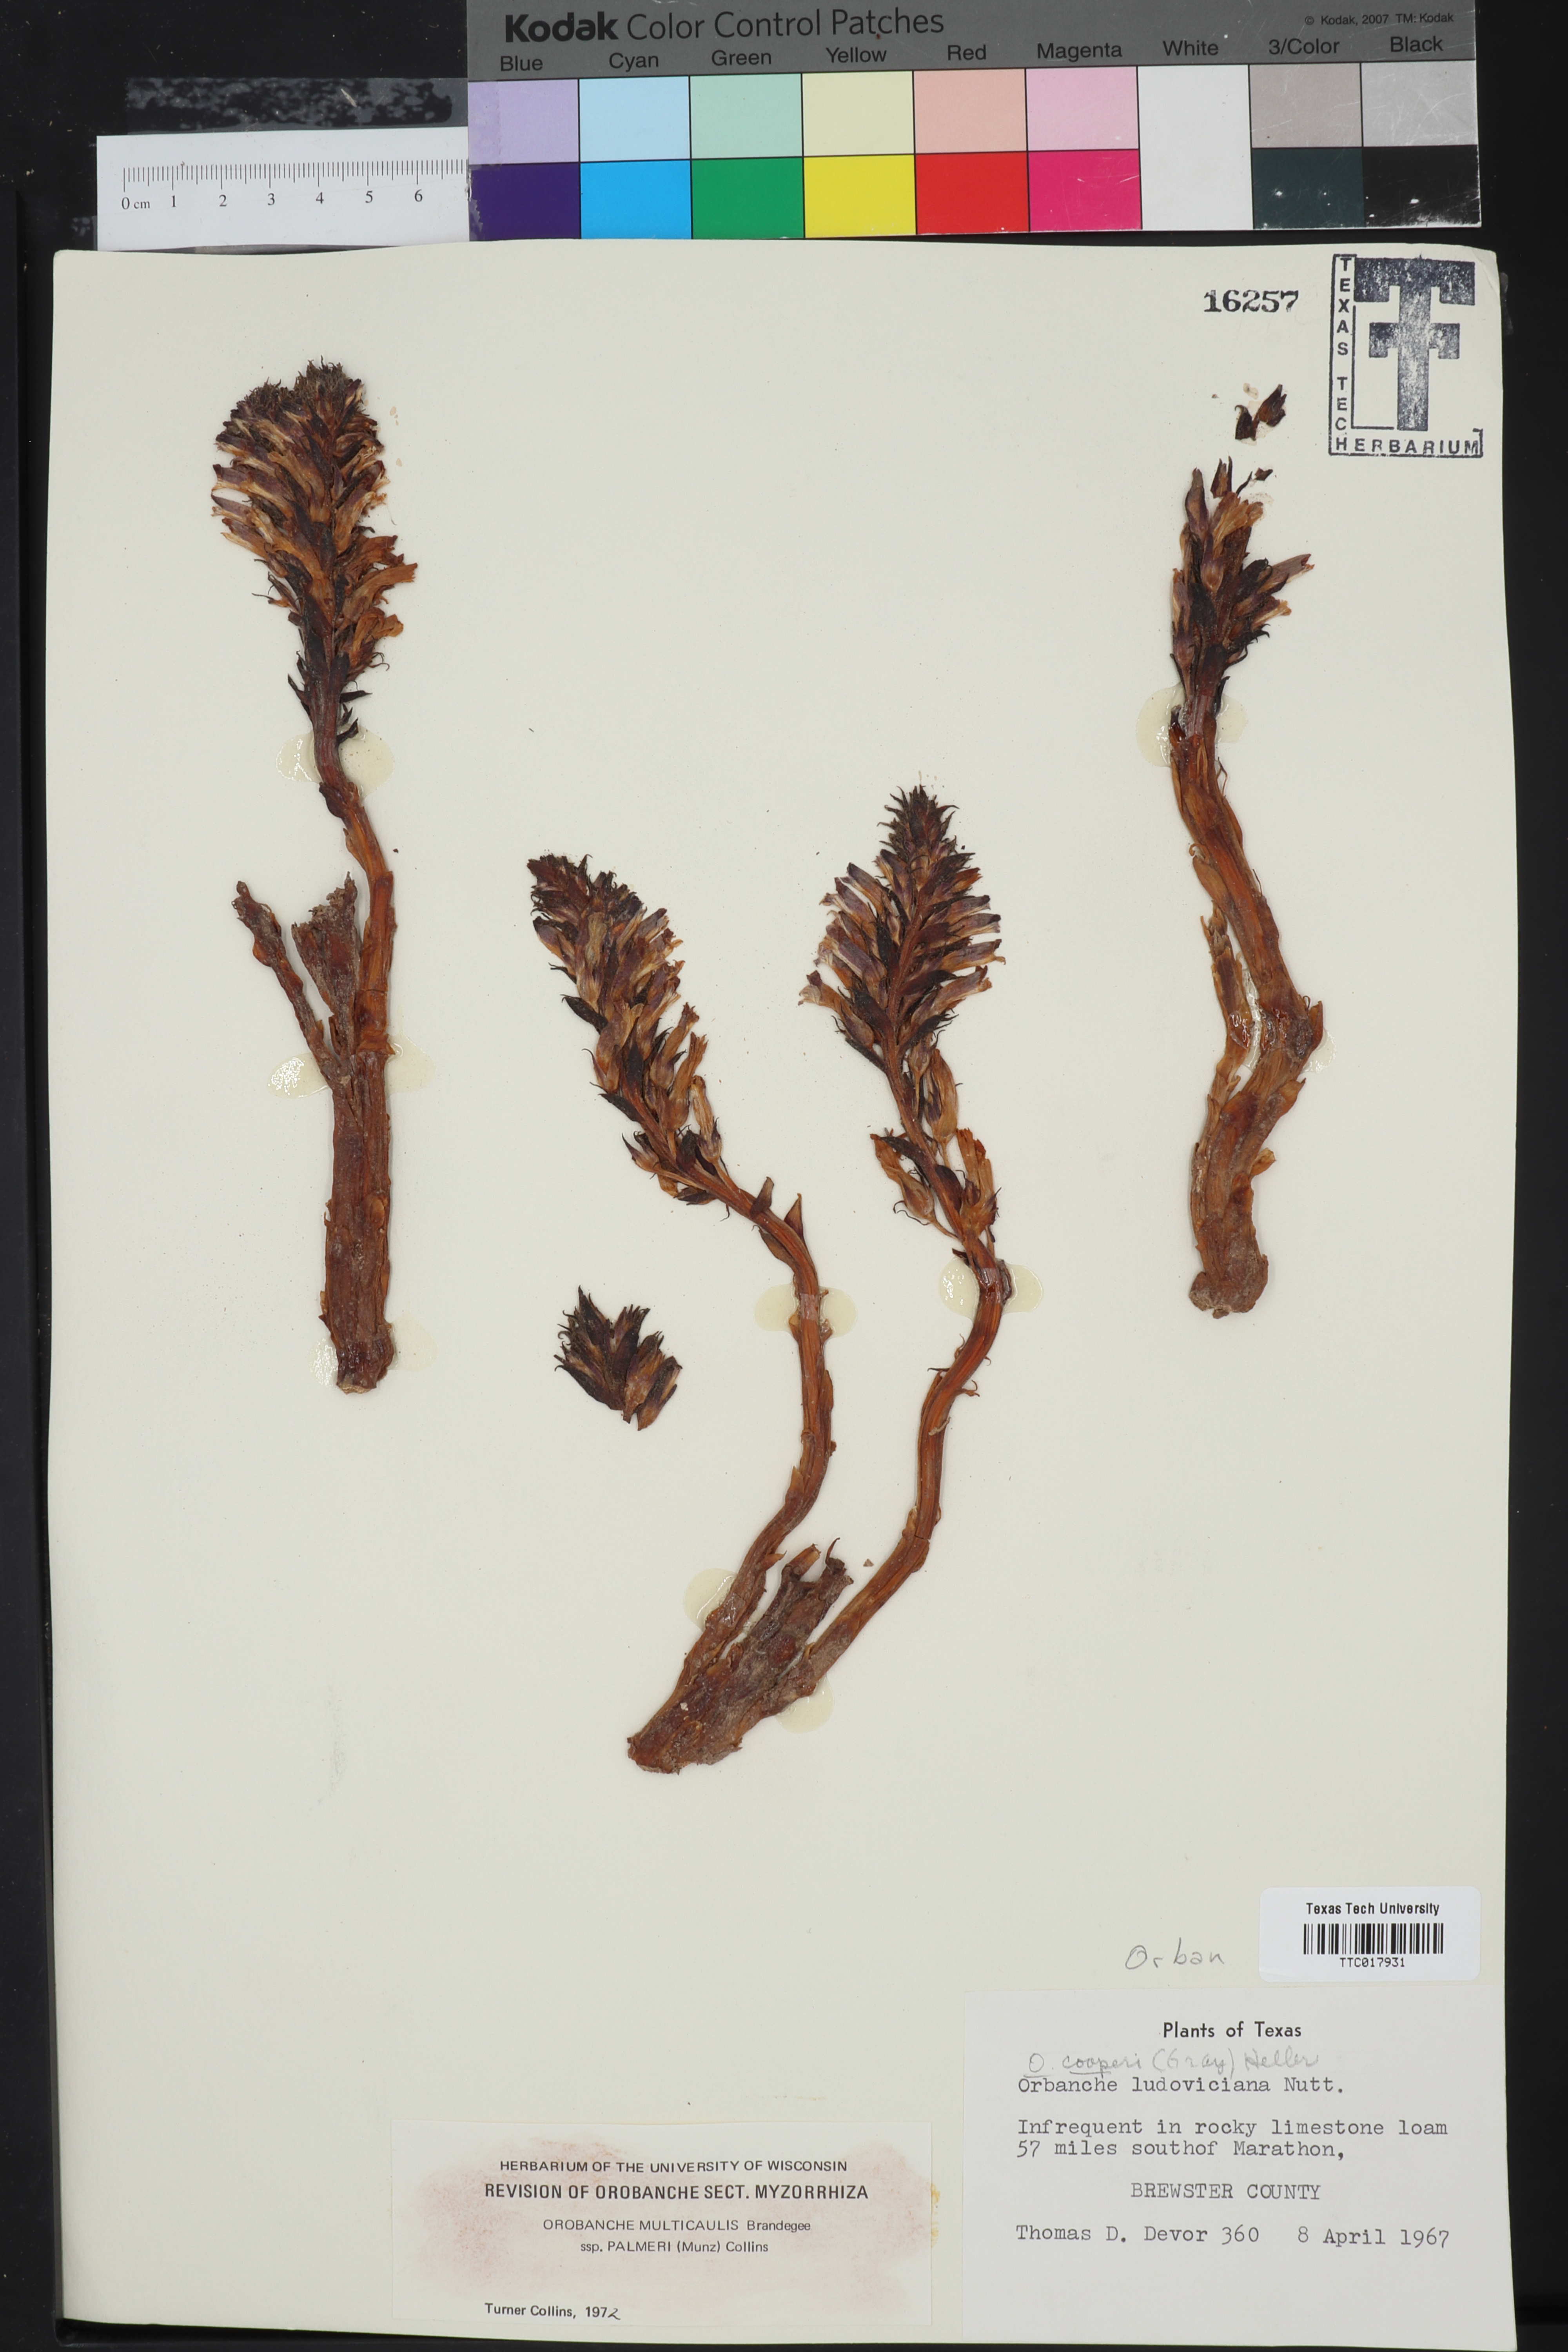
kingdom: Plantae
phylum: Tracheophyta
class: Magnoliopsida
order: Lamiales
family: Orobanchaceae
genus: Aphyllon
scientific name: Aphyllon cooperi
